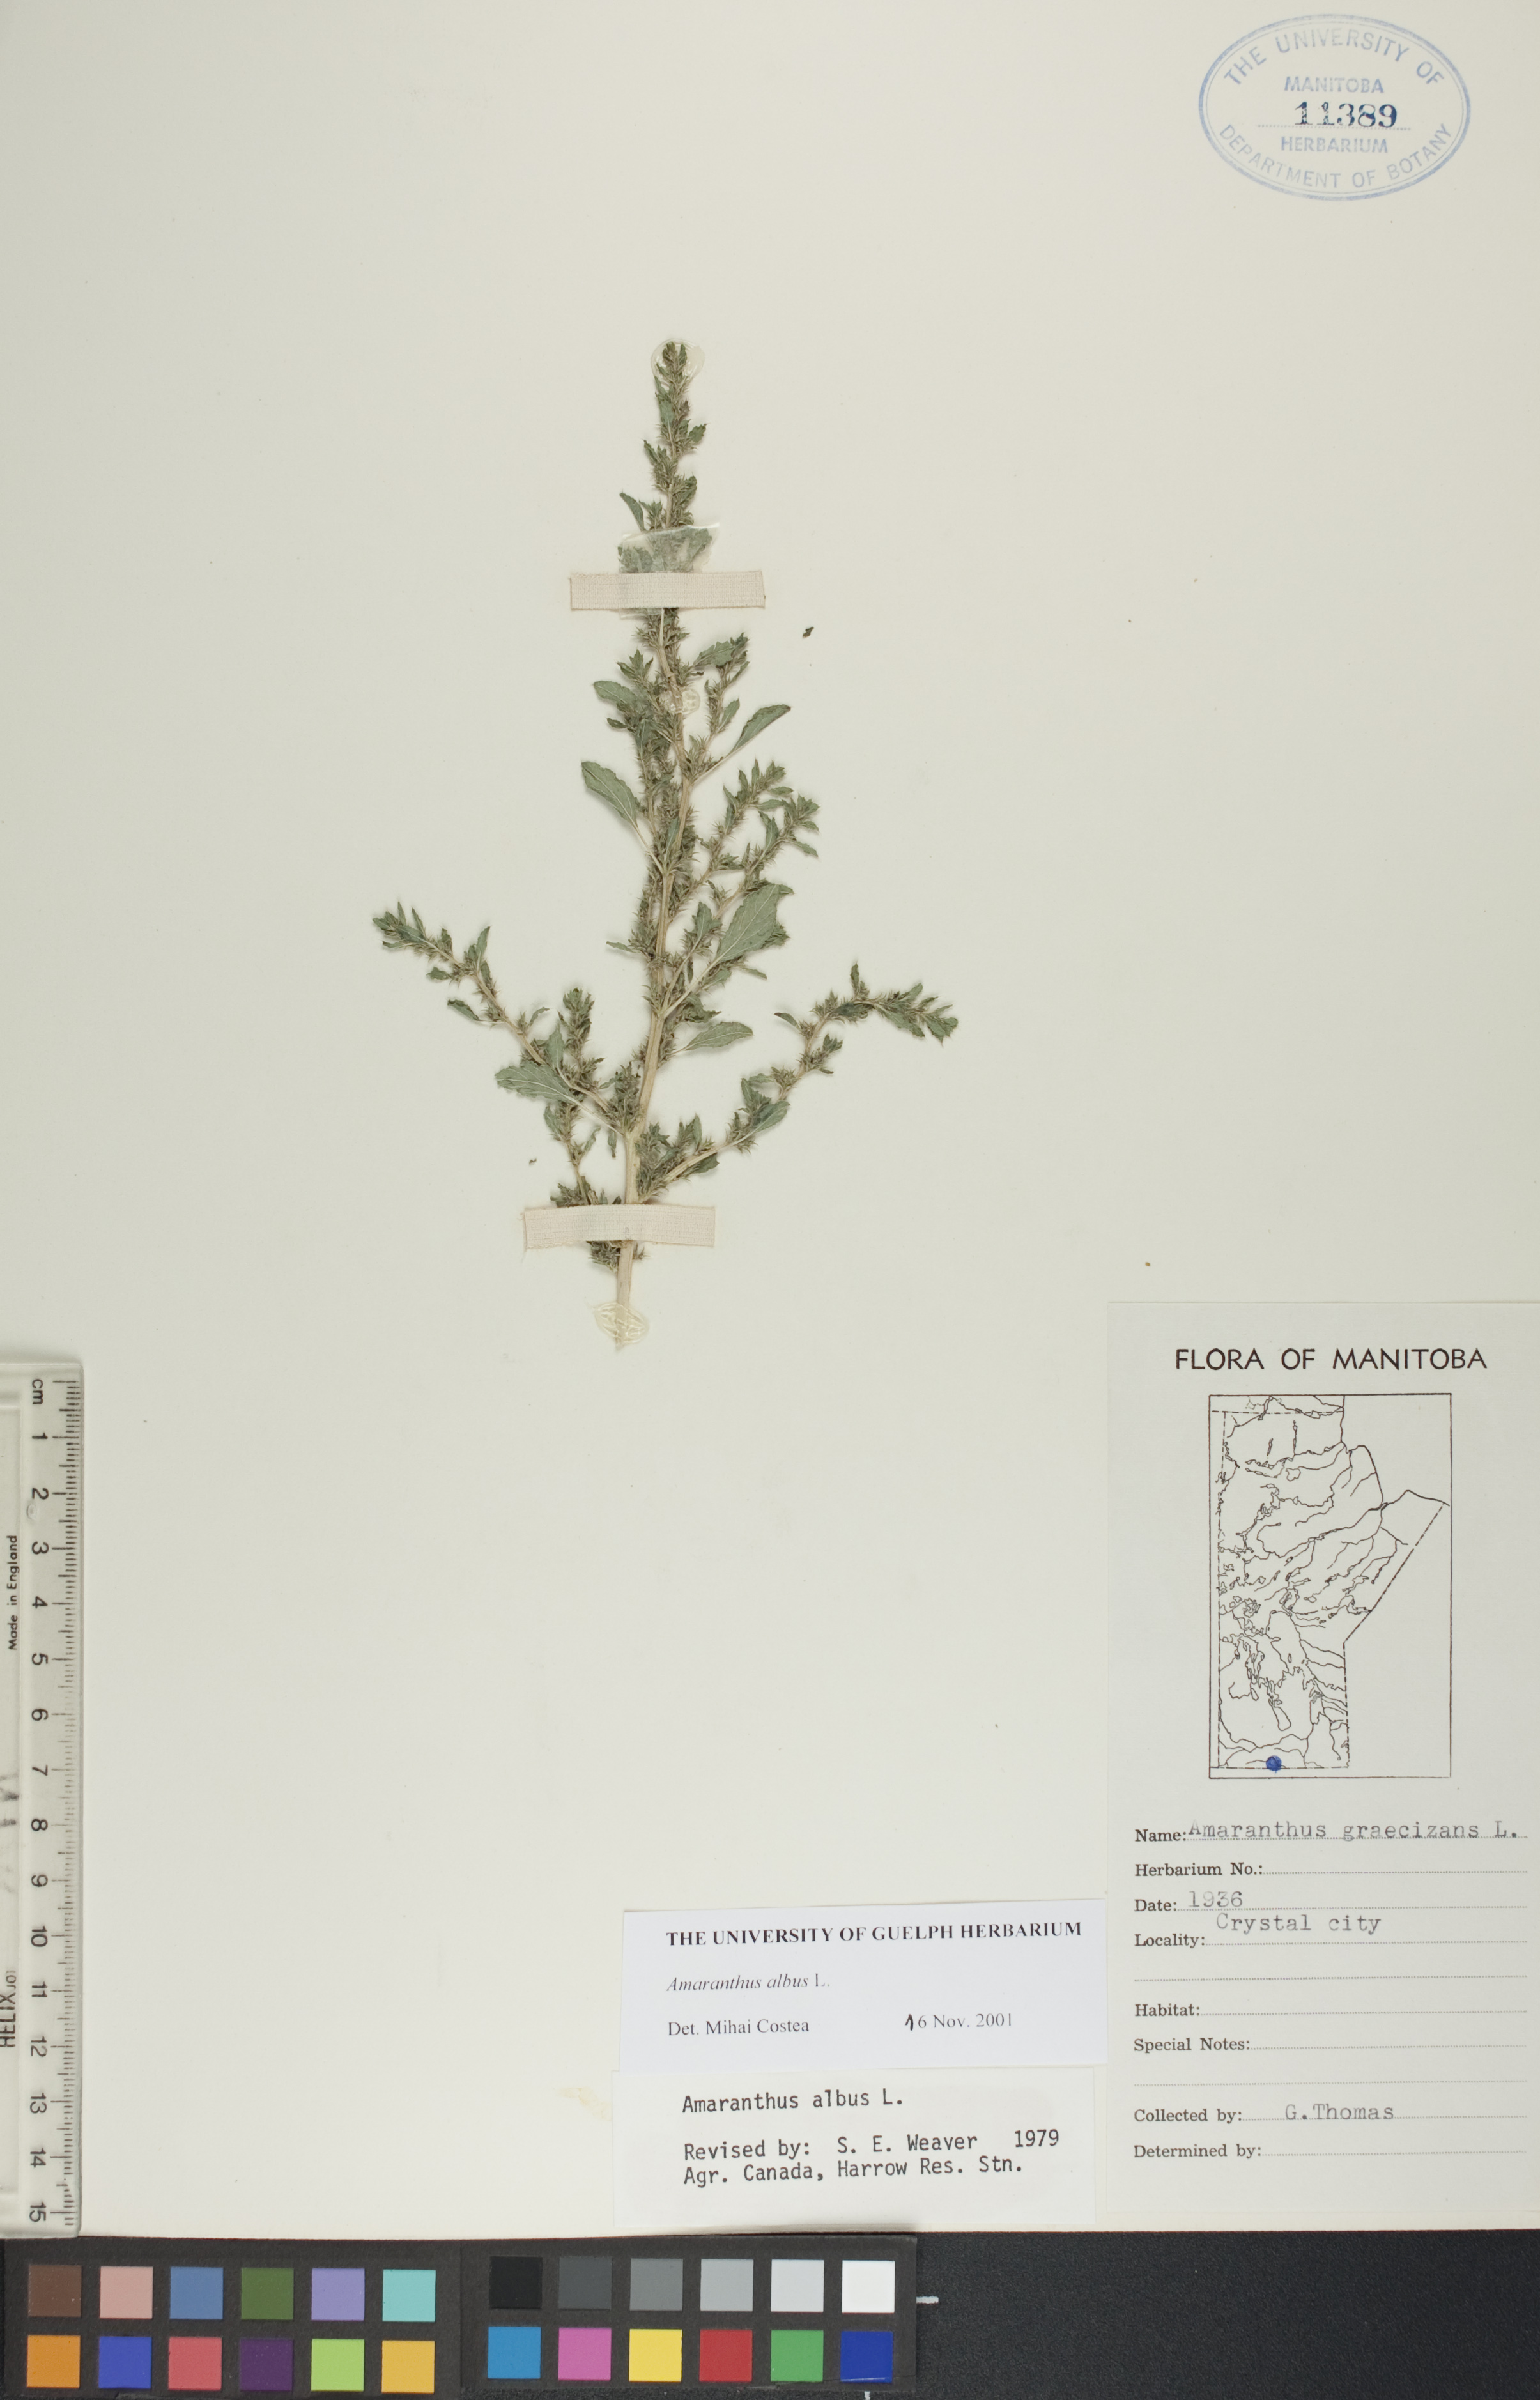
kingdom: Plantae
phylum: Tracheophyta
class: Magnoliopsida
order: Caryophyllales
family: Amaranthaceae
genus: Amaranthus
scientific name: Amaranthus albus
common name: White pigweed
